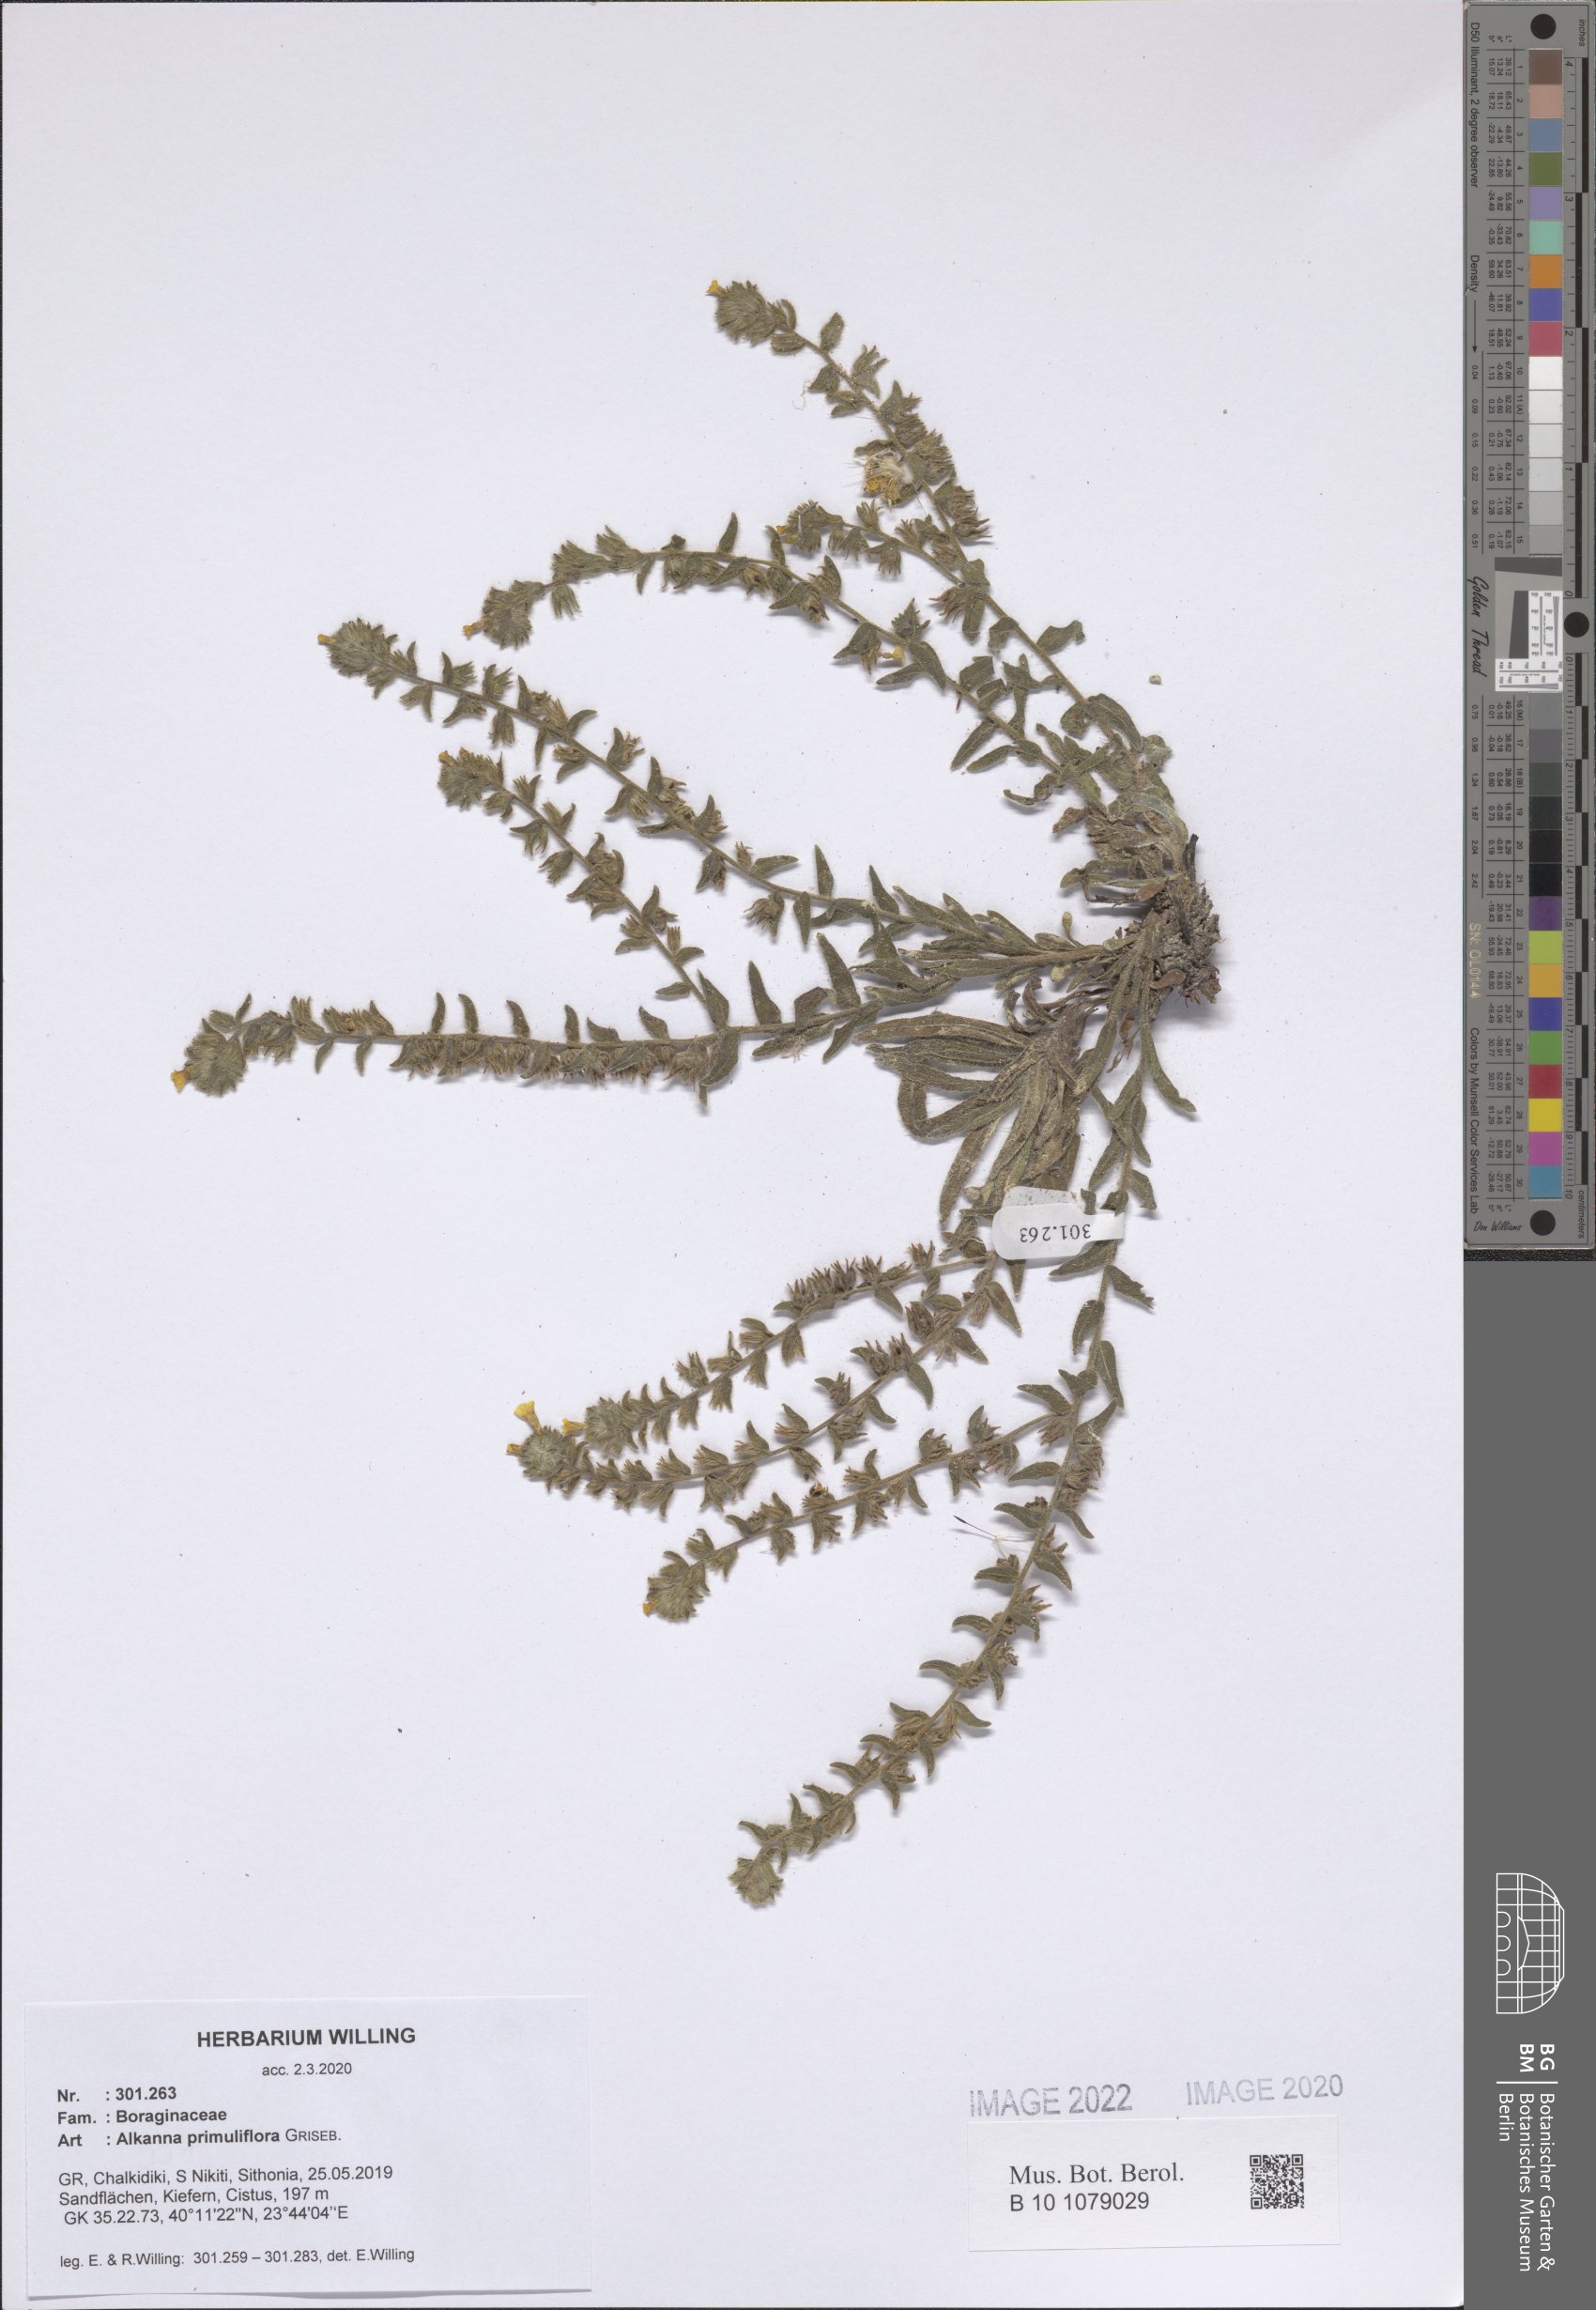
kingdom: Plantae
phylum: Tracheophyta
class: Magnoliopsida
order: Boraginales
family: Boraginaceae
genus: Alkanna
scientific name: Alkanna primuliflora
